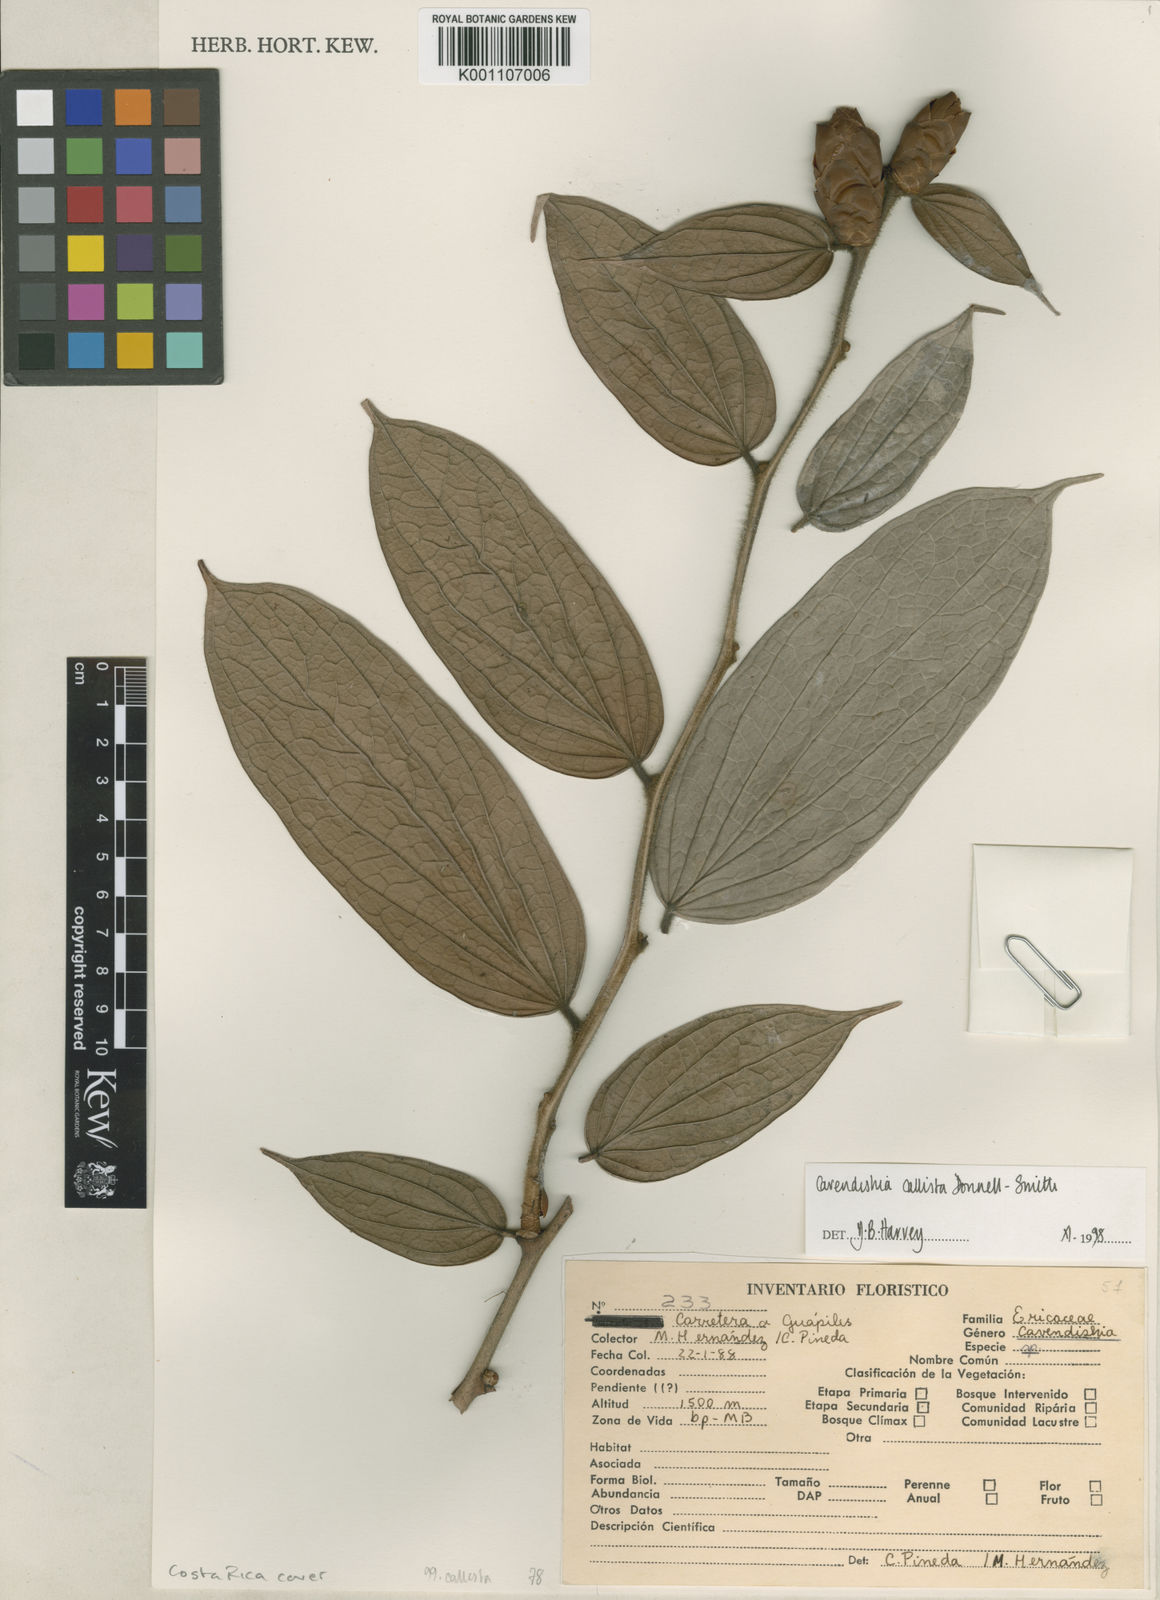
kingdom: Plantae
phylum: Tracheophyta
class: Magnoliopsida
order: Ericales
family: Ericaceae
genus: Cavendishia
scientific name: Cavendishia callista
